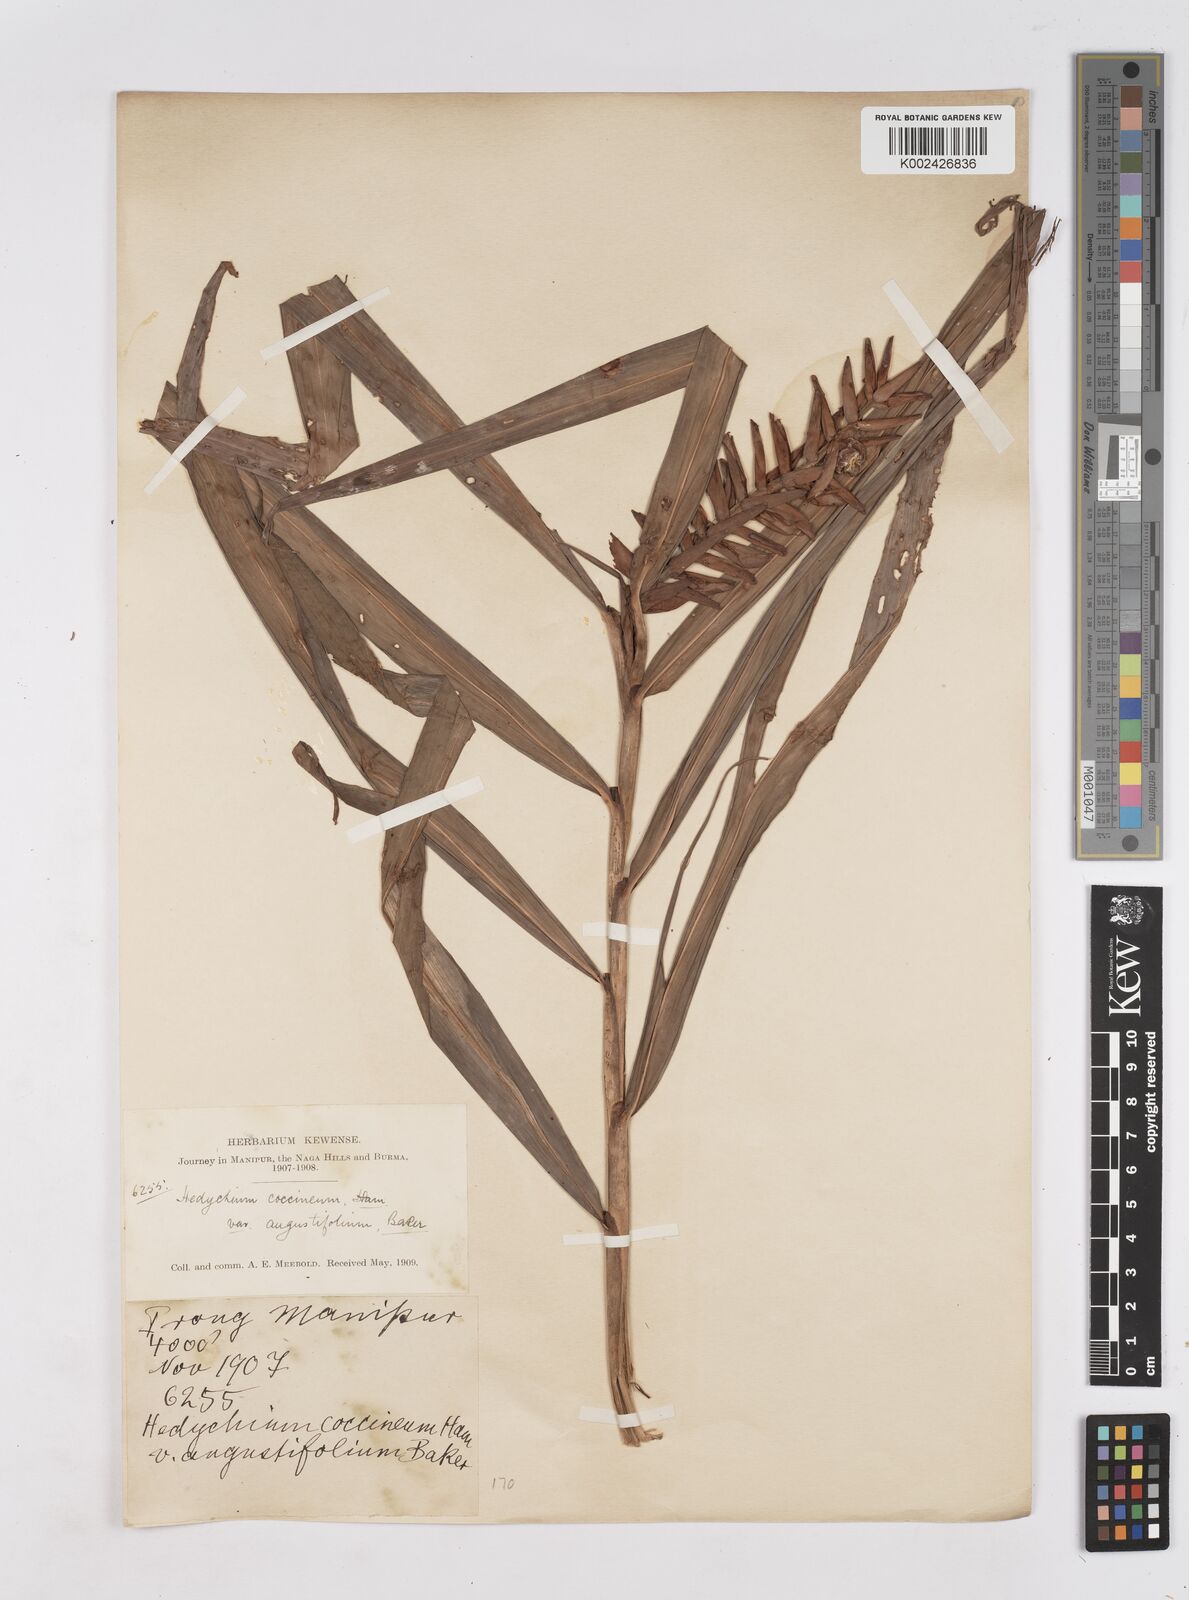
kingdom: Plantae
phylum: Tracheophyta
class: Liliopsida
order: Zingiberales
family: Zingiberaceae
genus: Hedychium
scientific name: Hedychium coccineum
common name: Red ginger-lily
